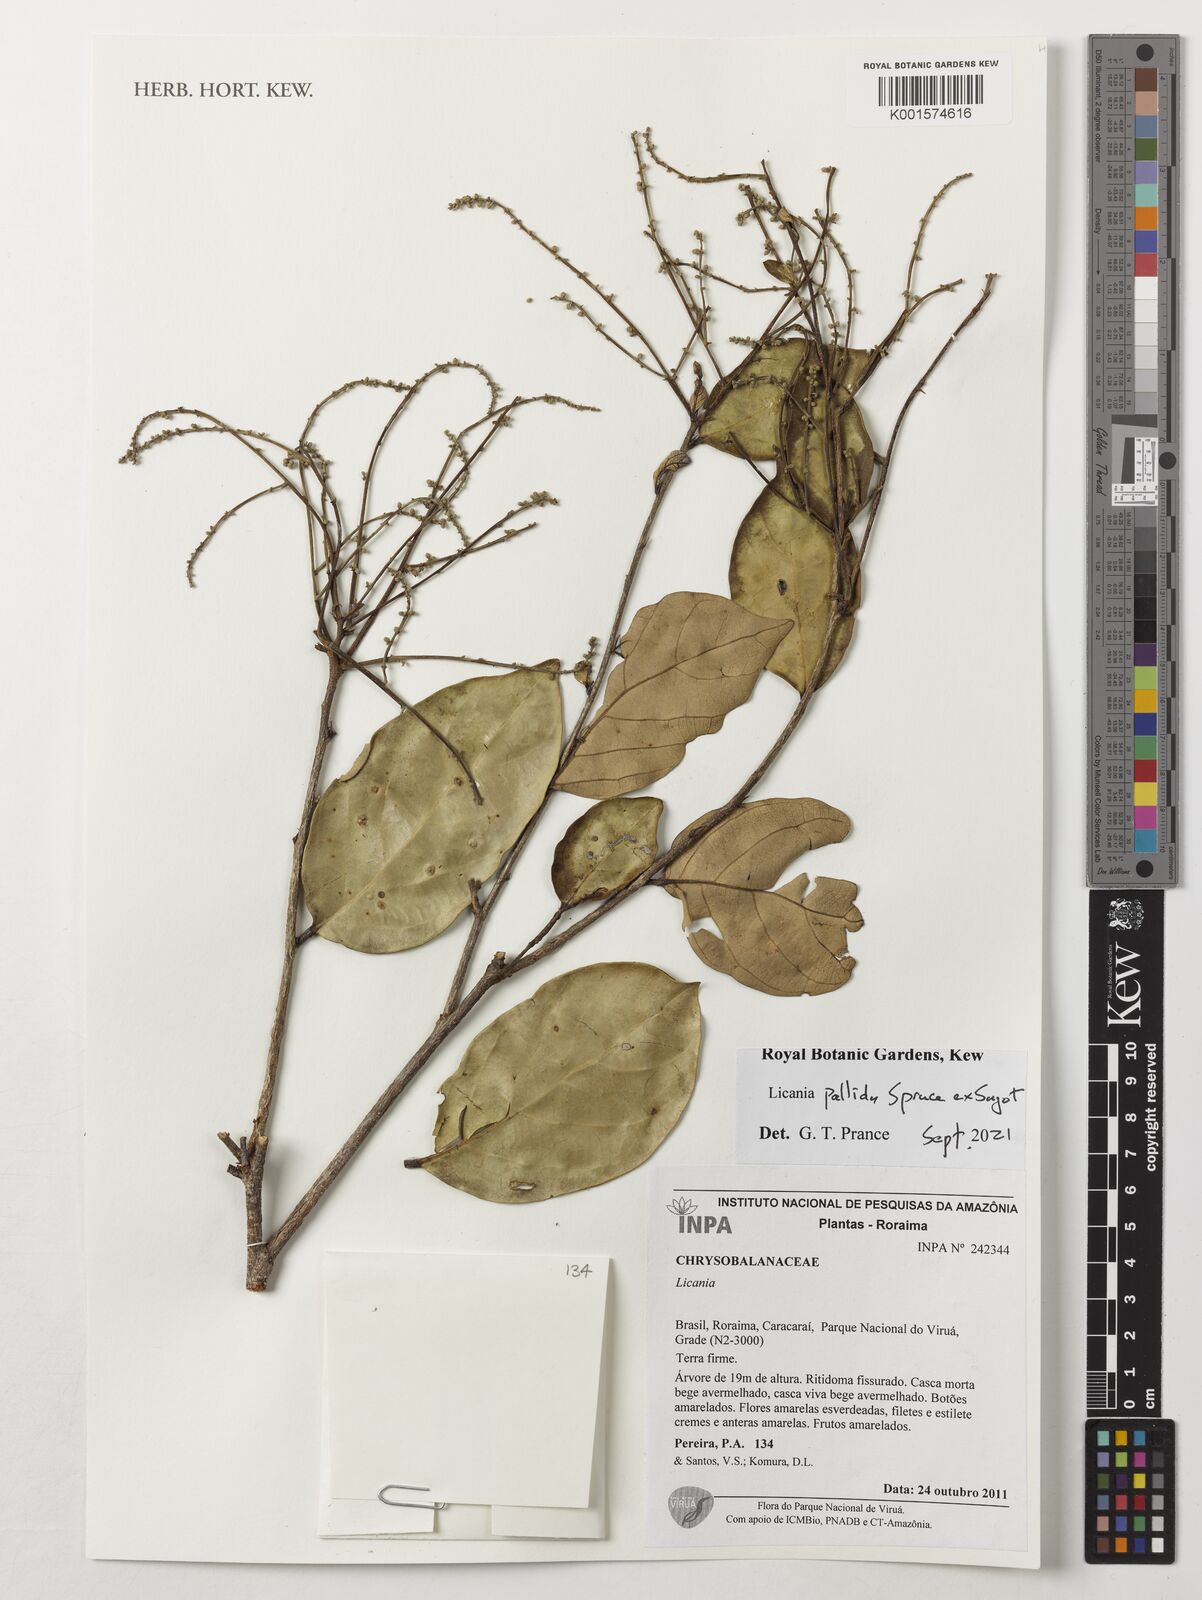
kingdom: Plantae
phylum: Tracheophyta
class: Magnoliopsida
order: Malpighiales
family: Chrysobalanaceae
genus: Licania
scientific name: Licania pallida
